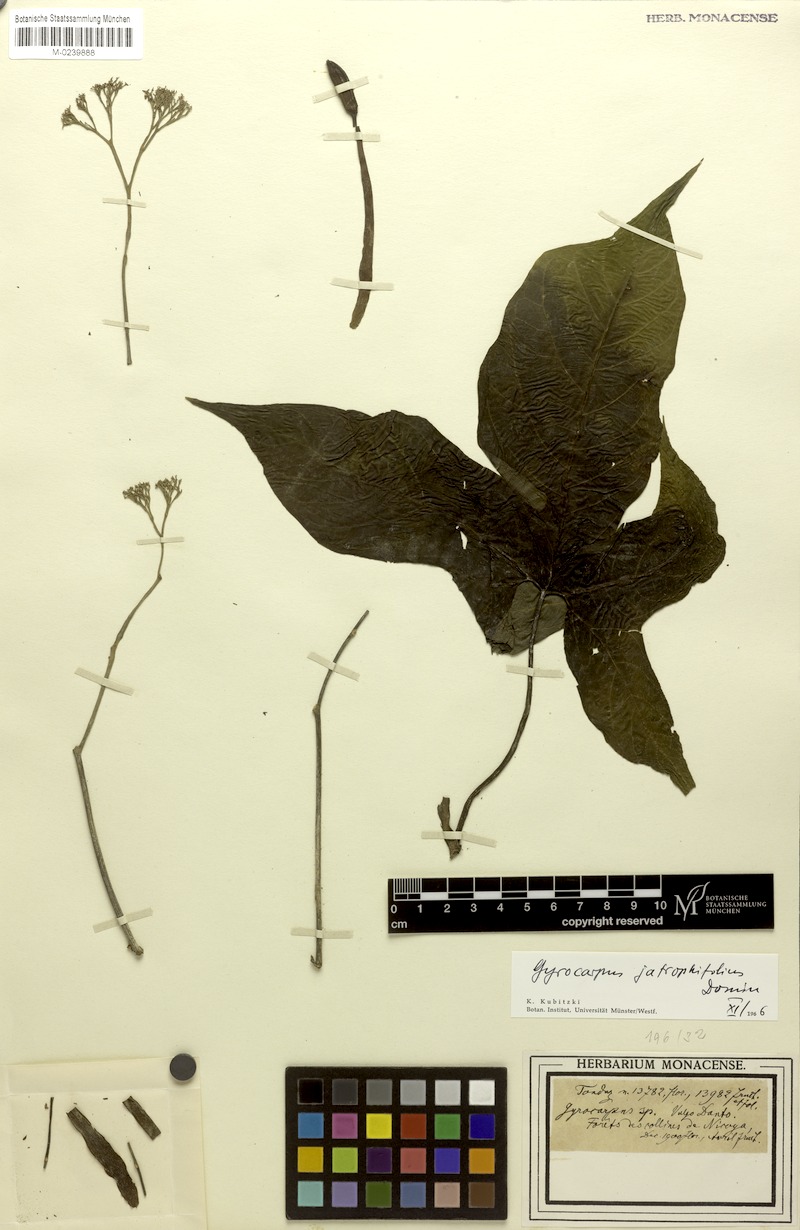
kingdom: Plantae
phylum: Tracheophyta
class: Magnoliopsida
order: Laurales
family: Hernandiaceae
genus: Gyrocarpus
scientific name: Gyrocarpus jatrophifolius
